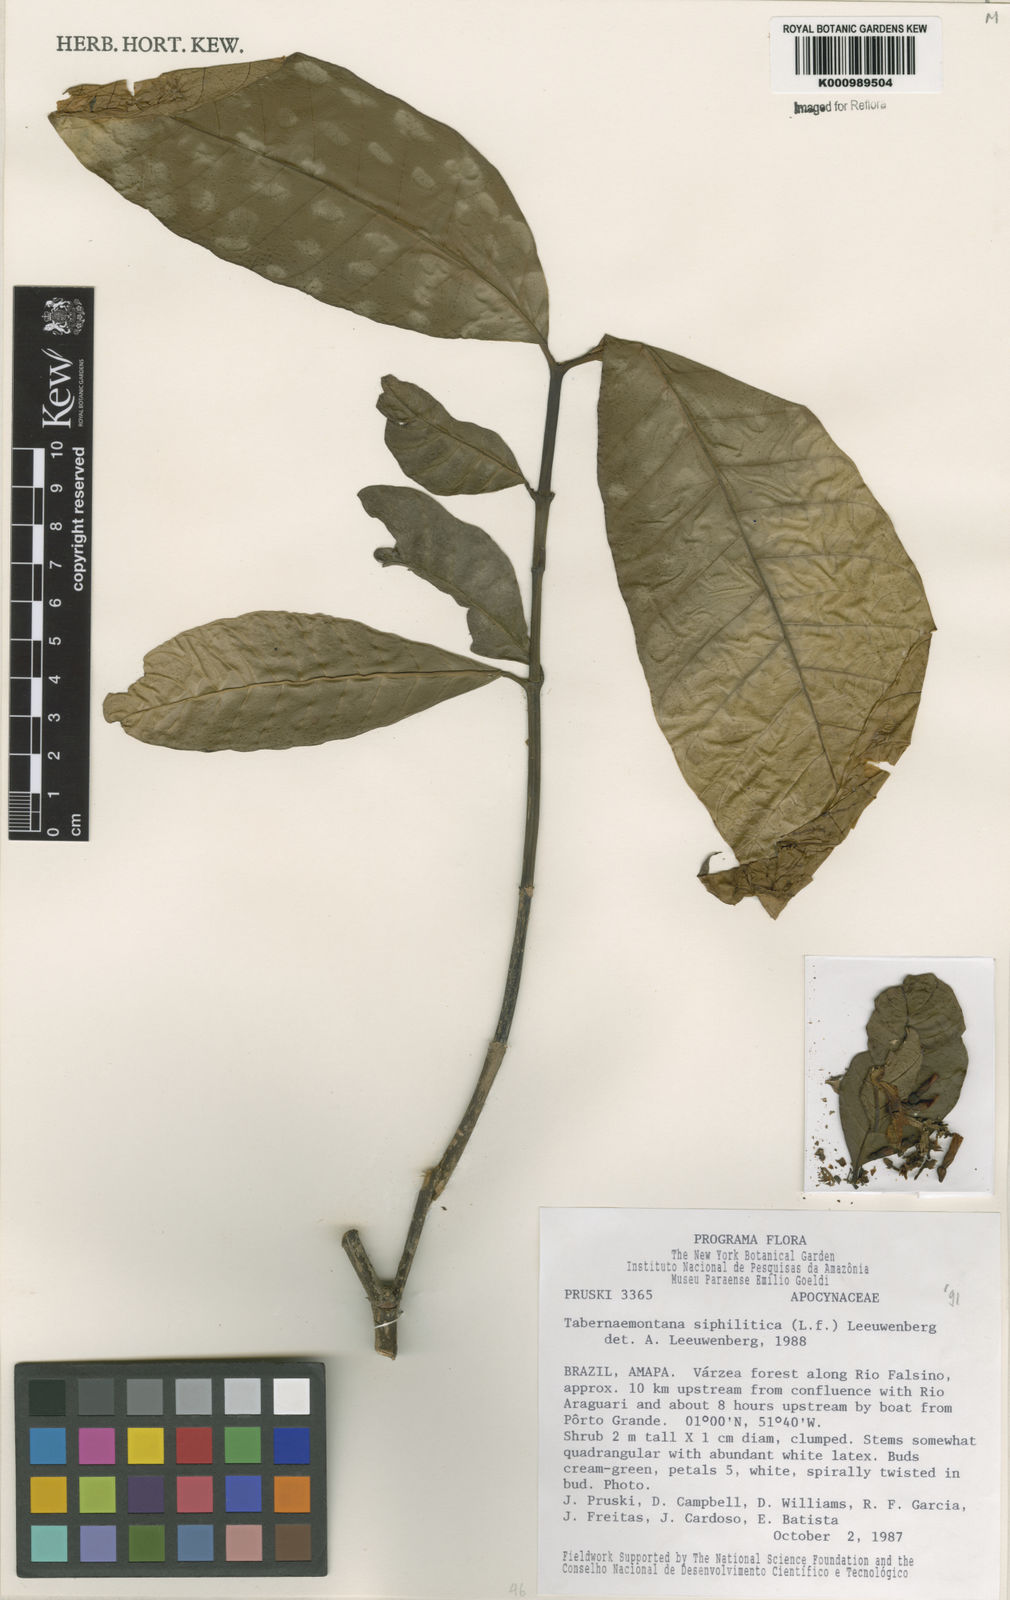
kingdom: Plantae
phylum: Tracheophyta
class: Magnoliopsida
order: Gentianales
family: Apocynaceae
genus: Tabernaemontana
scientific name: Tabernaemontana siphilitica
